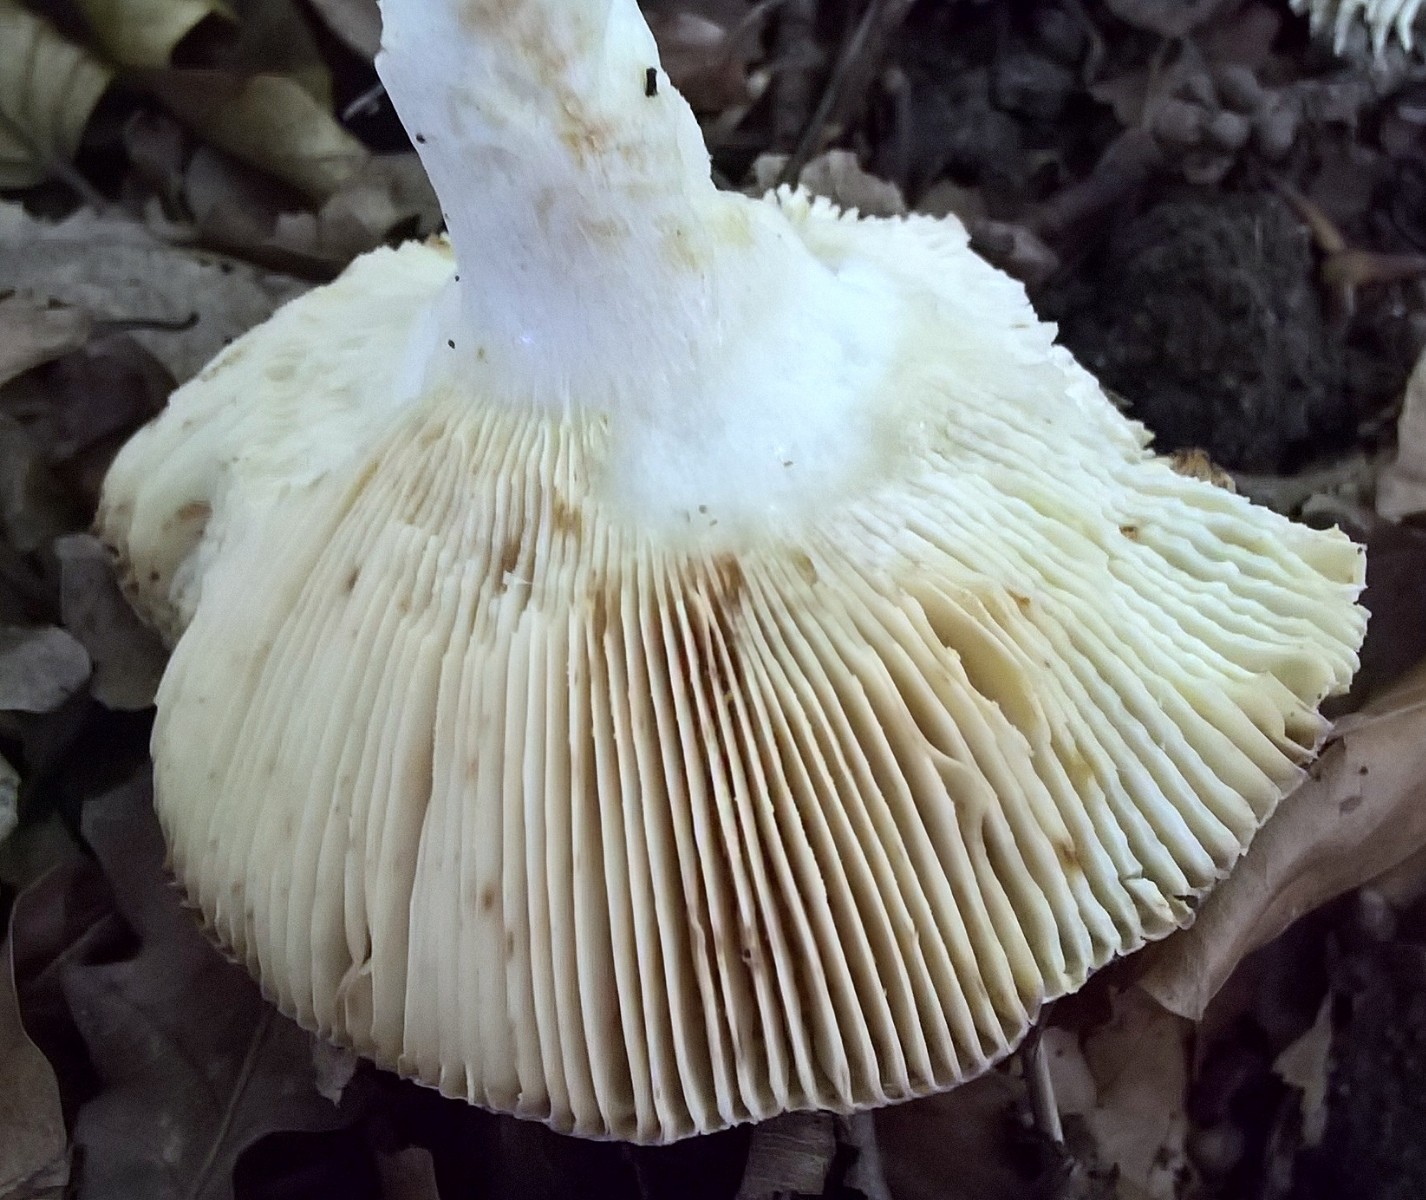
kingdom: Fungi
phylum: Basidiomycota
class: Agaricomycetes
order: Russulales
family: Russulaceae
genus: Russula
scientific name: Russula
